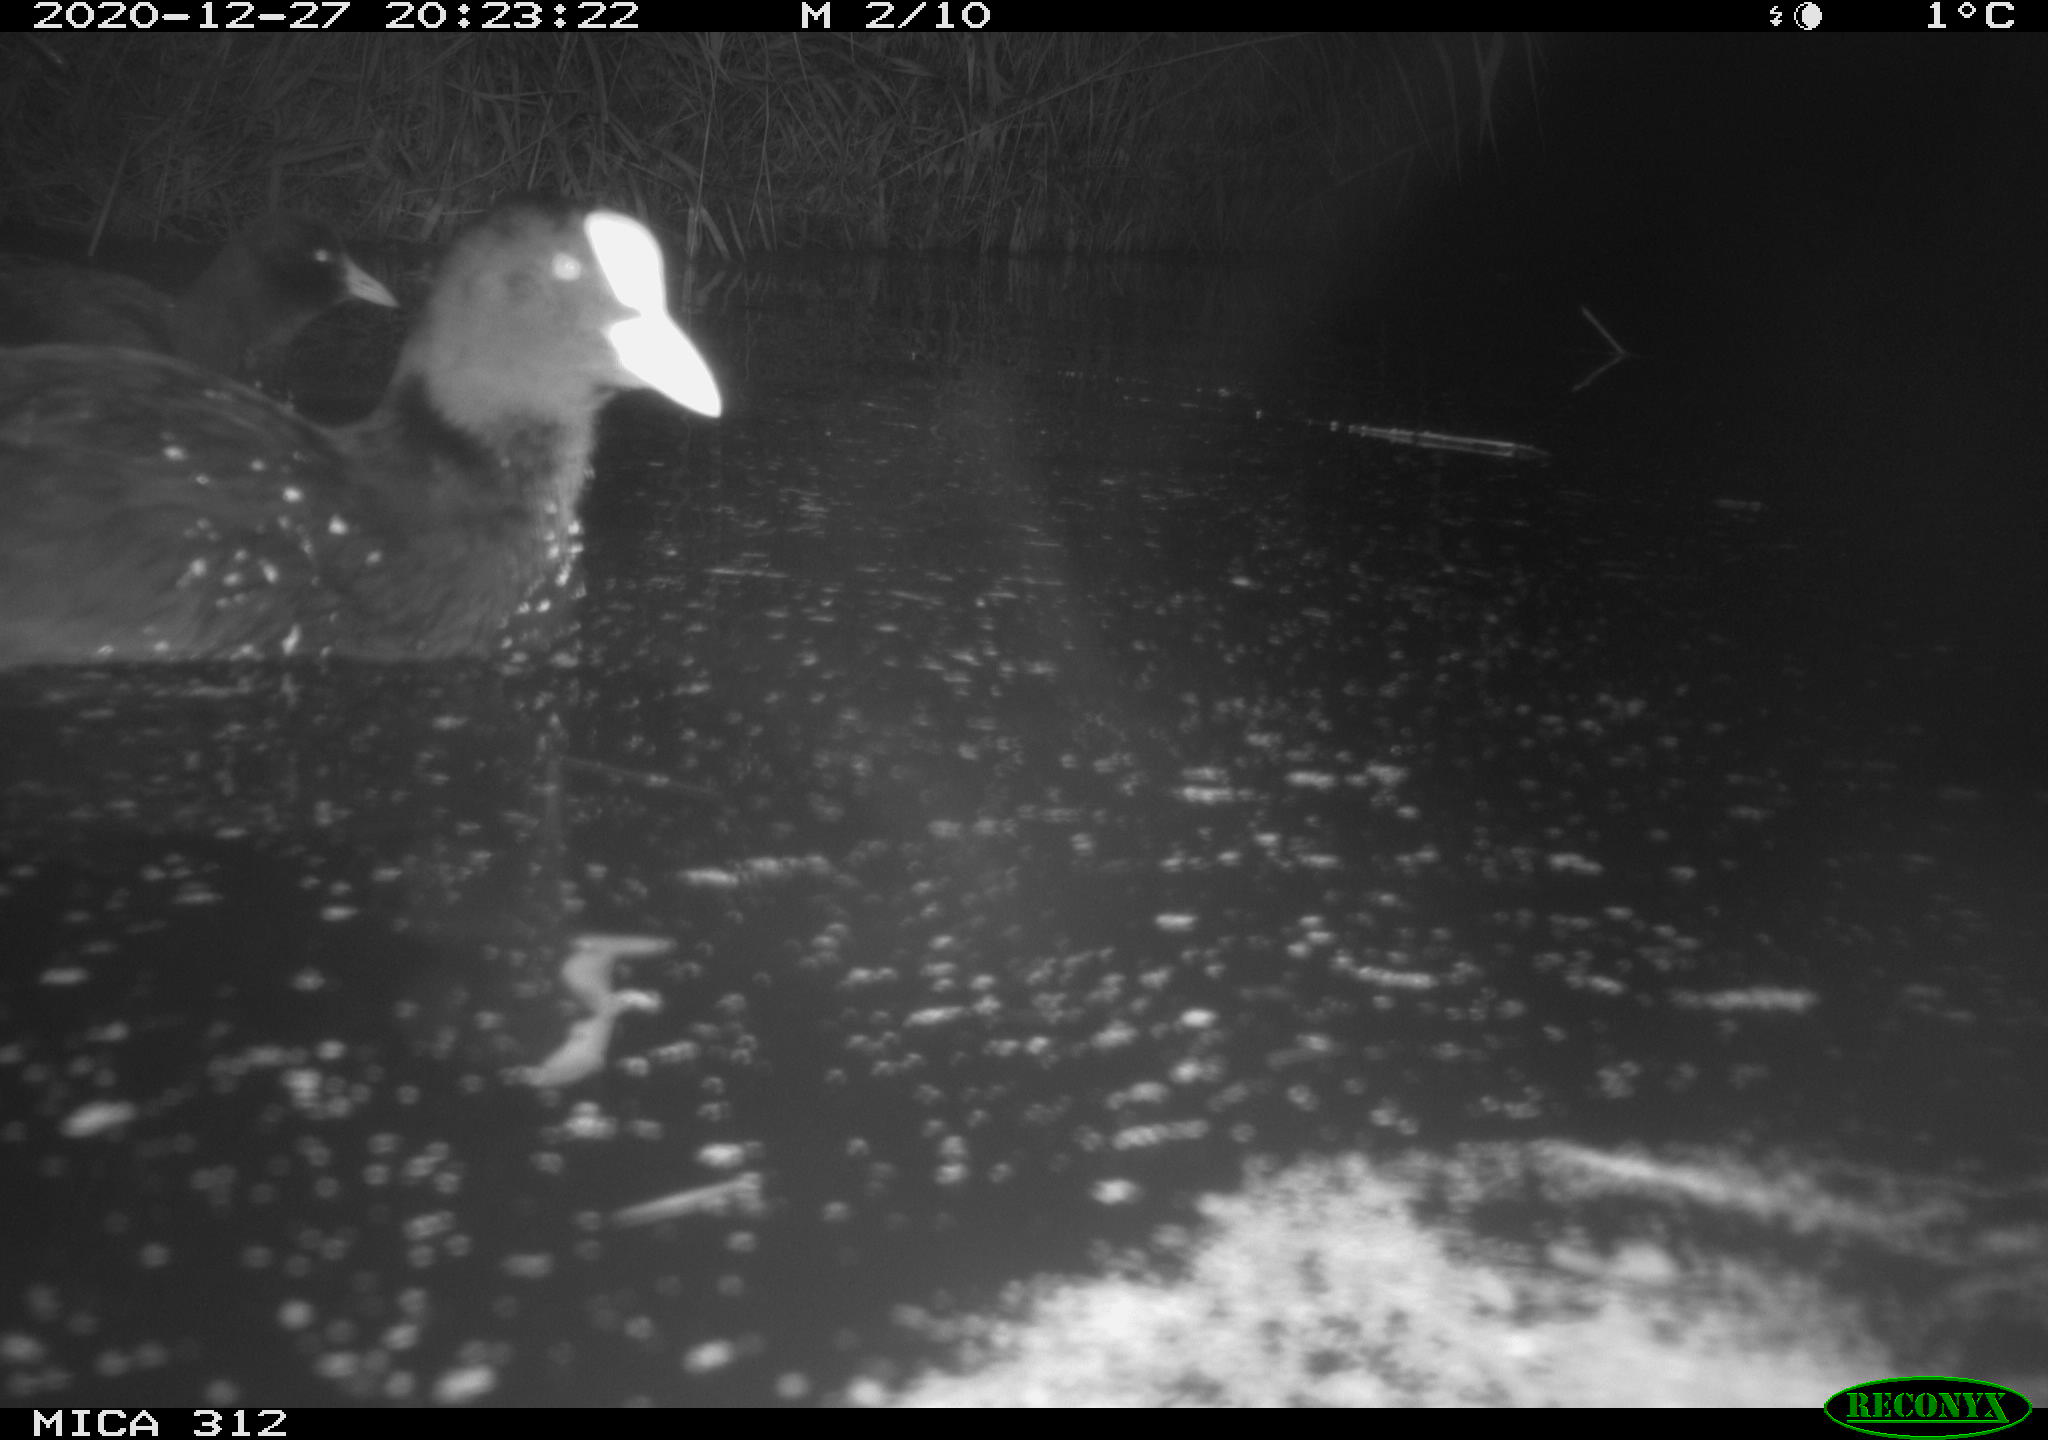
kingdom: Animalia
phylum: Chordata
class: Aves
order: Gruiformes
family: Rallidae
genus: Gallinula
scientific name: Gallinula chloropus
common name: Common moorhen
